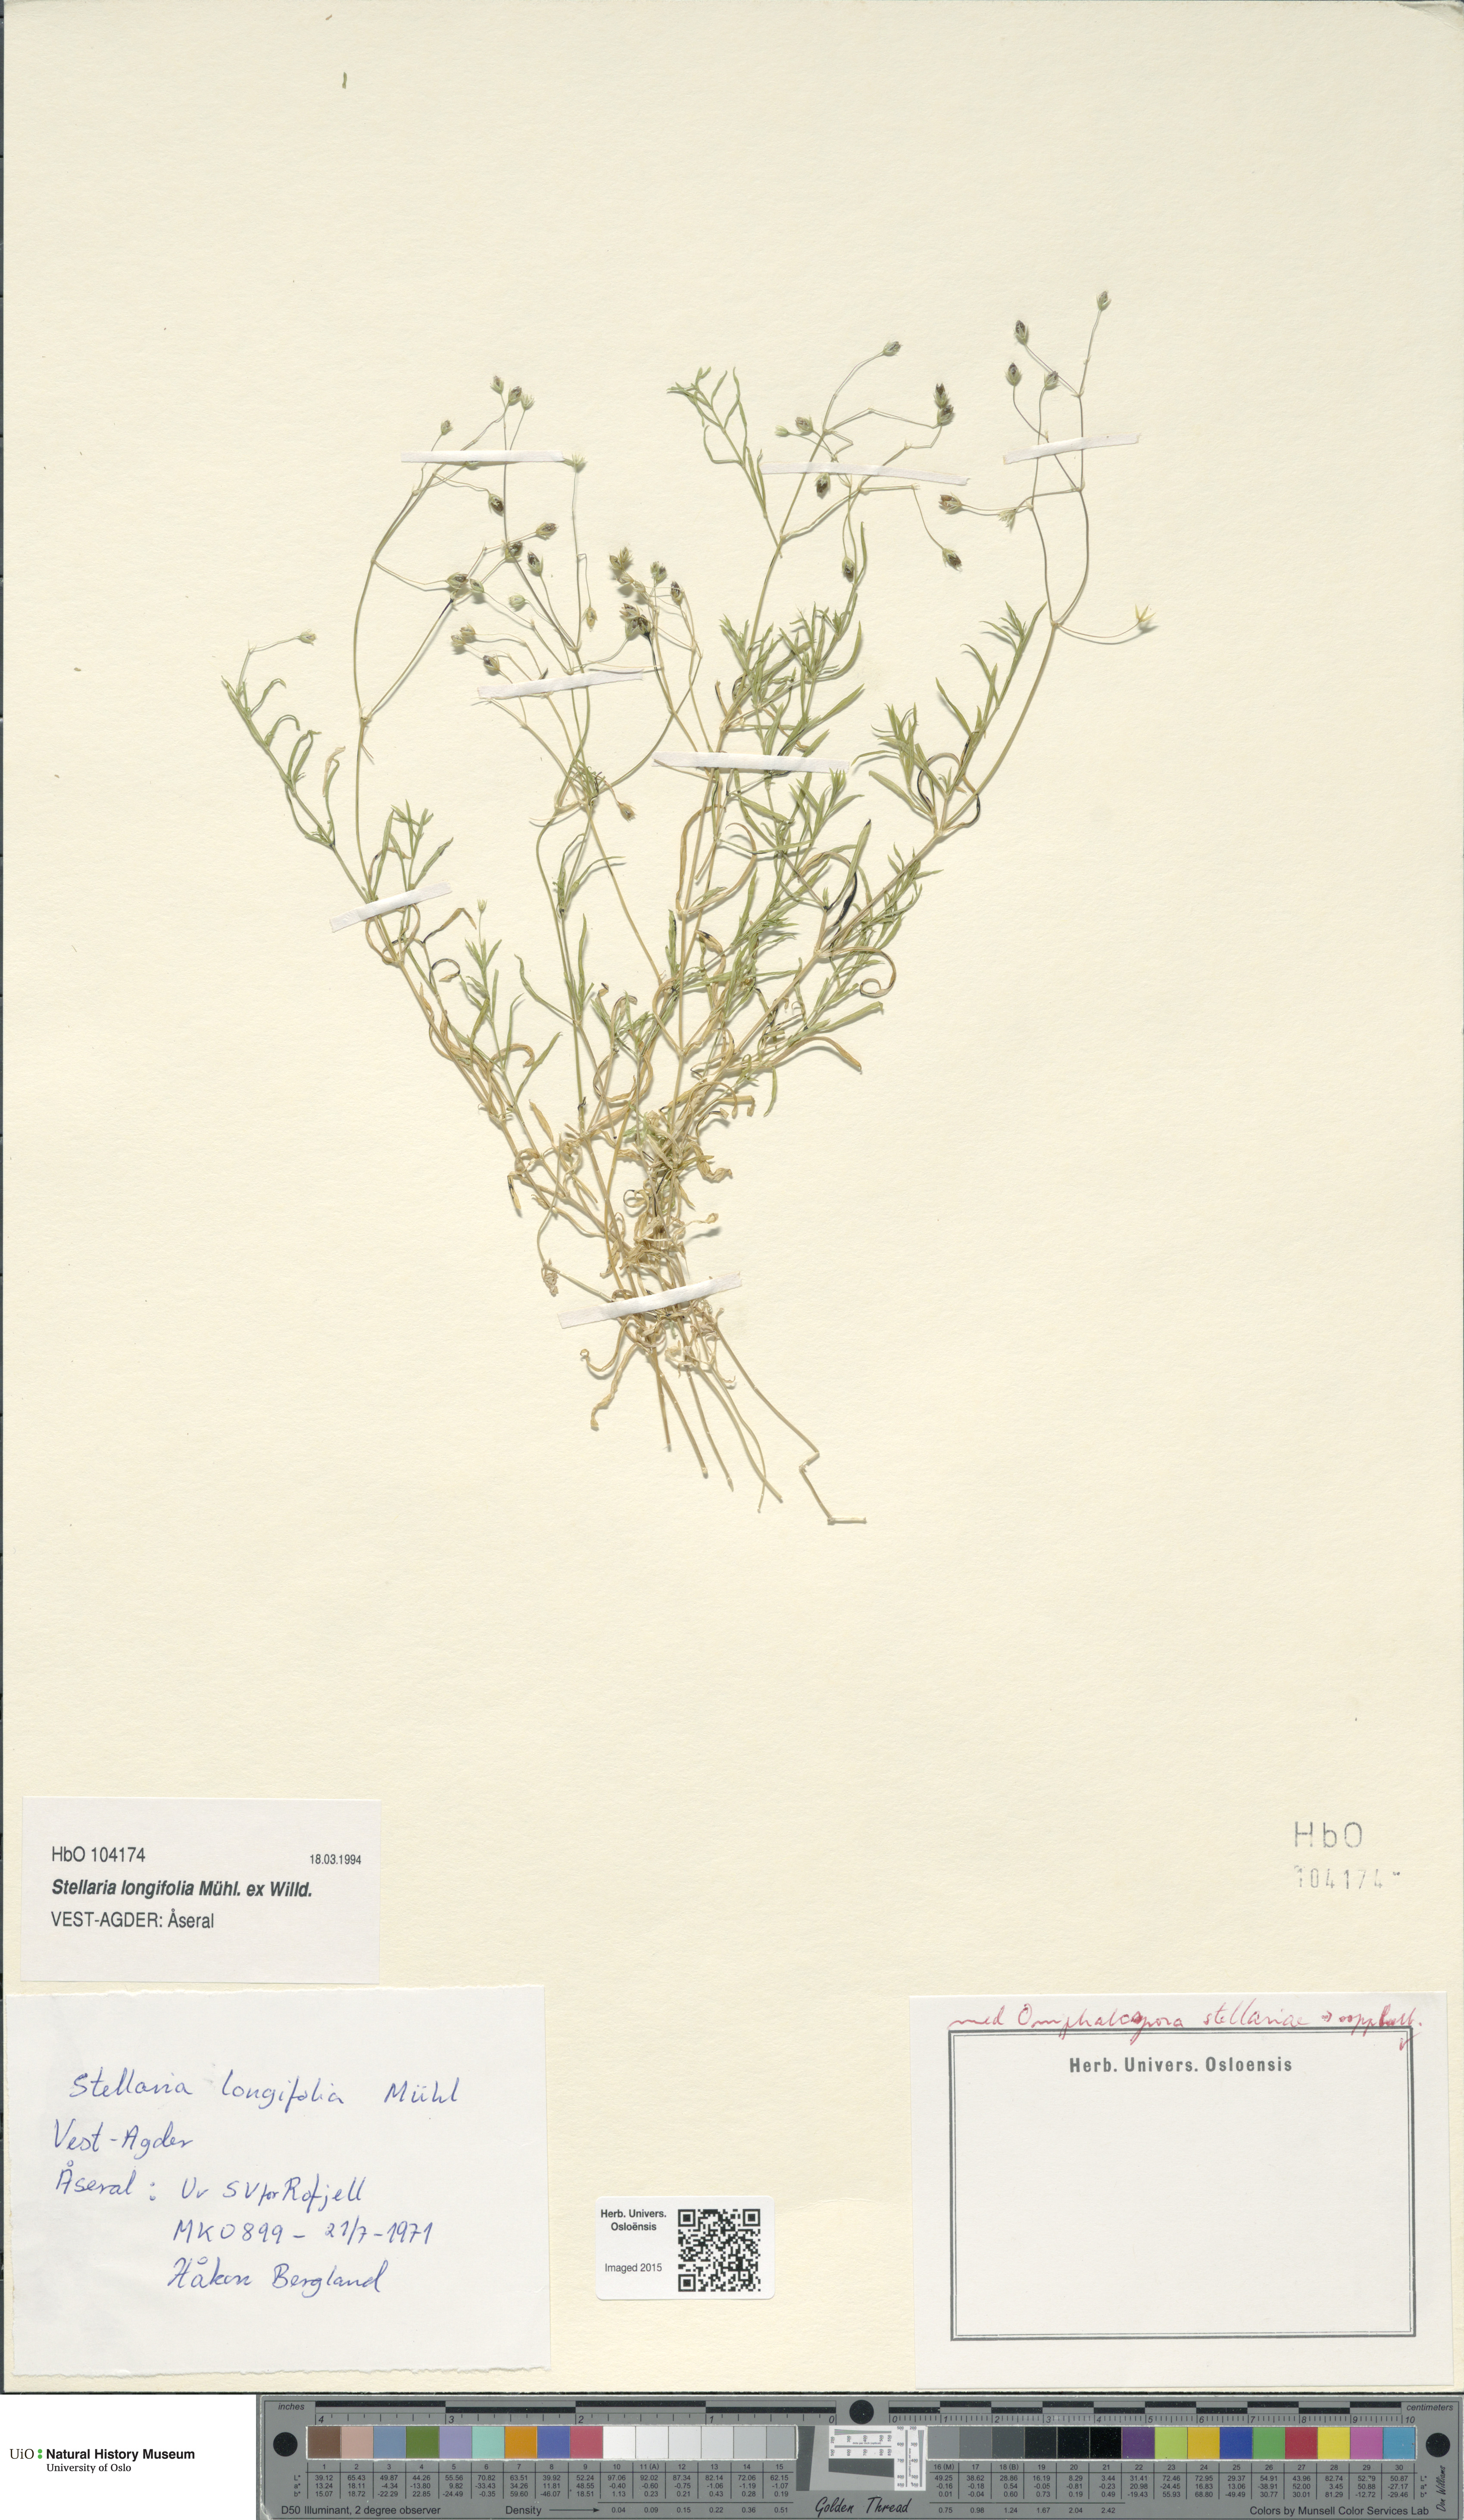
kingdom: Plantae
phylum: Tracheophyta
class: Magnoliopsida
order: Caryophyllales
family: Caryophyllaceae
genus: Stellaria
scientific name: Stellaria longifolia
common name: Long-leaved chickweed
